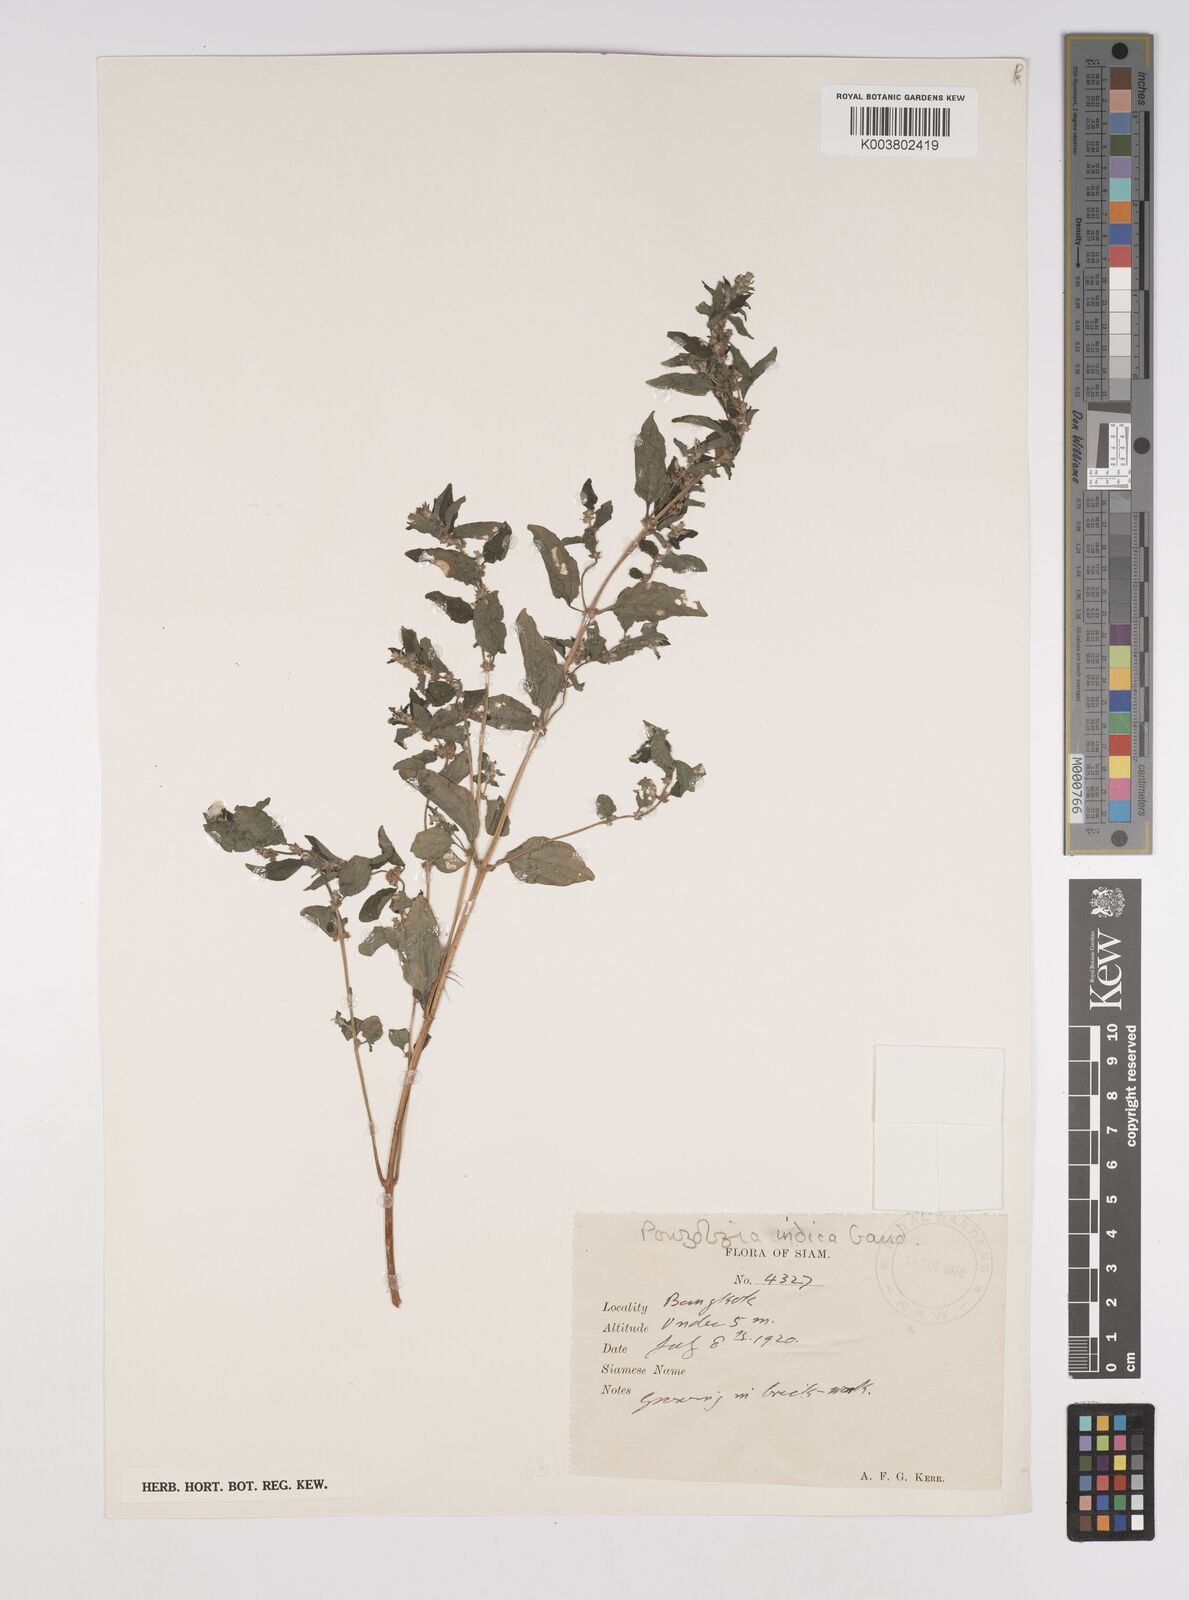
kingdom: Plantae
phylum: Tracheophyta
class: Magnoliopsida
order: Rosales
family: Urticaceae
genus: Pouzolzia
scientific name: Pouzolzia zeylanica
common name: Graceful pouzolzsbush
